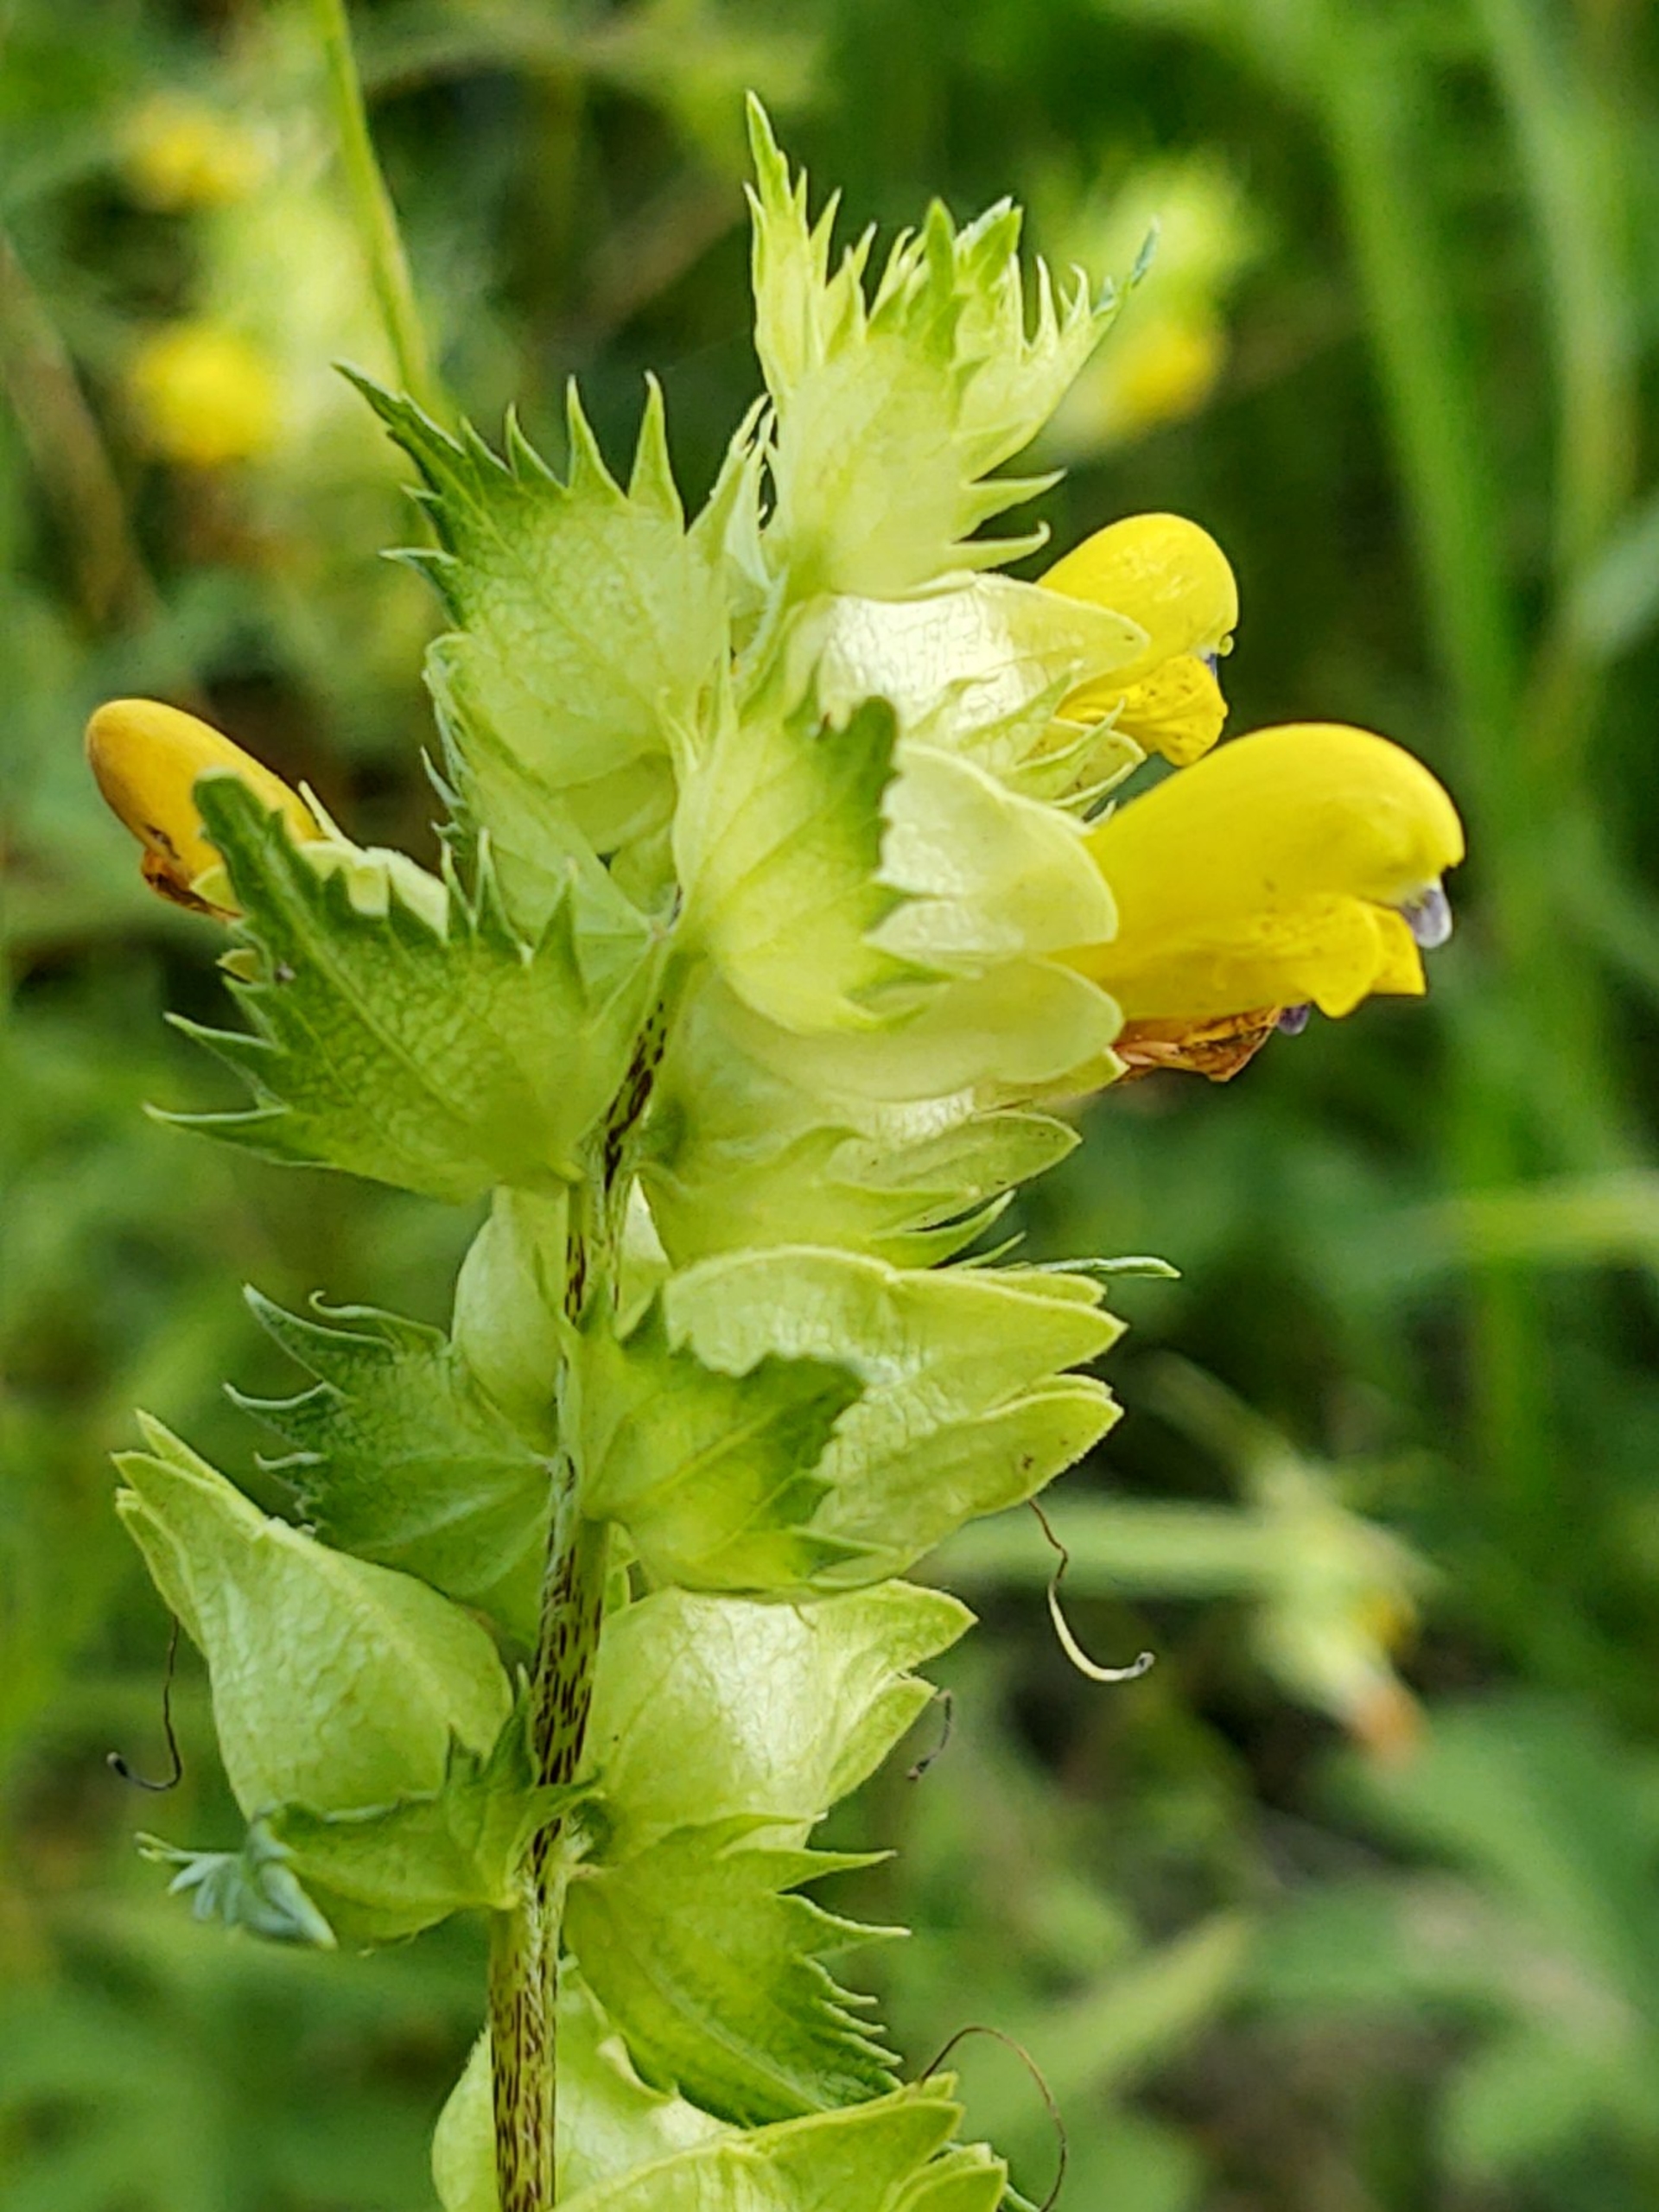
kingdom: Plantae
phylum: Tracheophyta
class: Magnoliopsida
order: Lamiales
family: Orobanchaceae
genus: Rhinanthus
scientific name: Rhinanthus
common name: Stor skjaller
